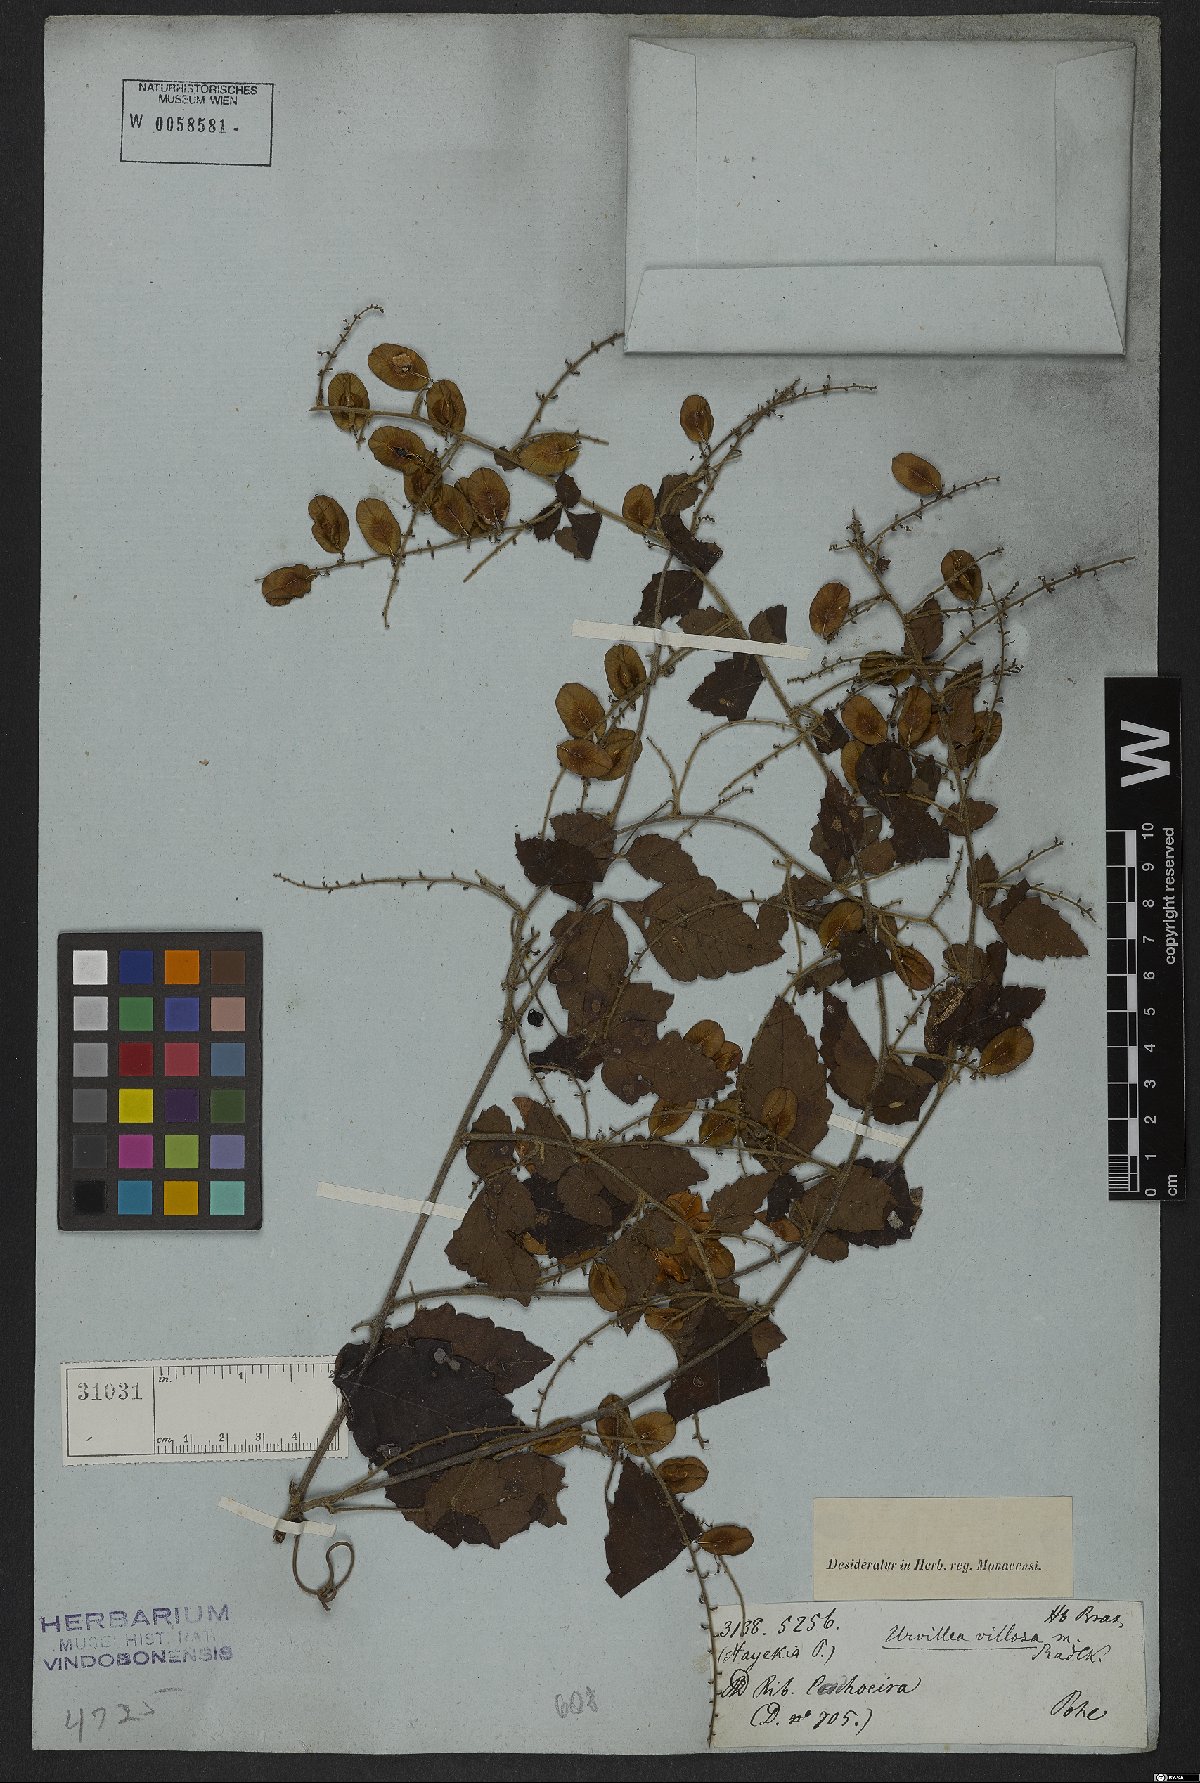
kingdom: Plantae
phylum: Tracheophyta
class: Magnoliopsida
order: Sapindales
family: Sapindaceae
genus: Urvillea
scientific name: Urvillea laevis
